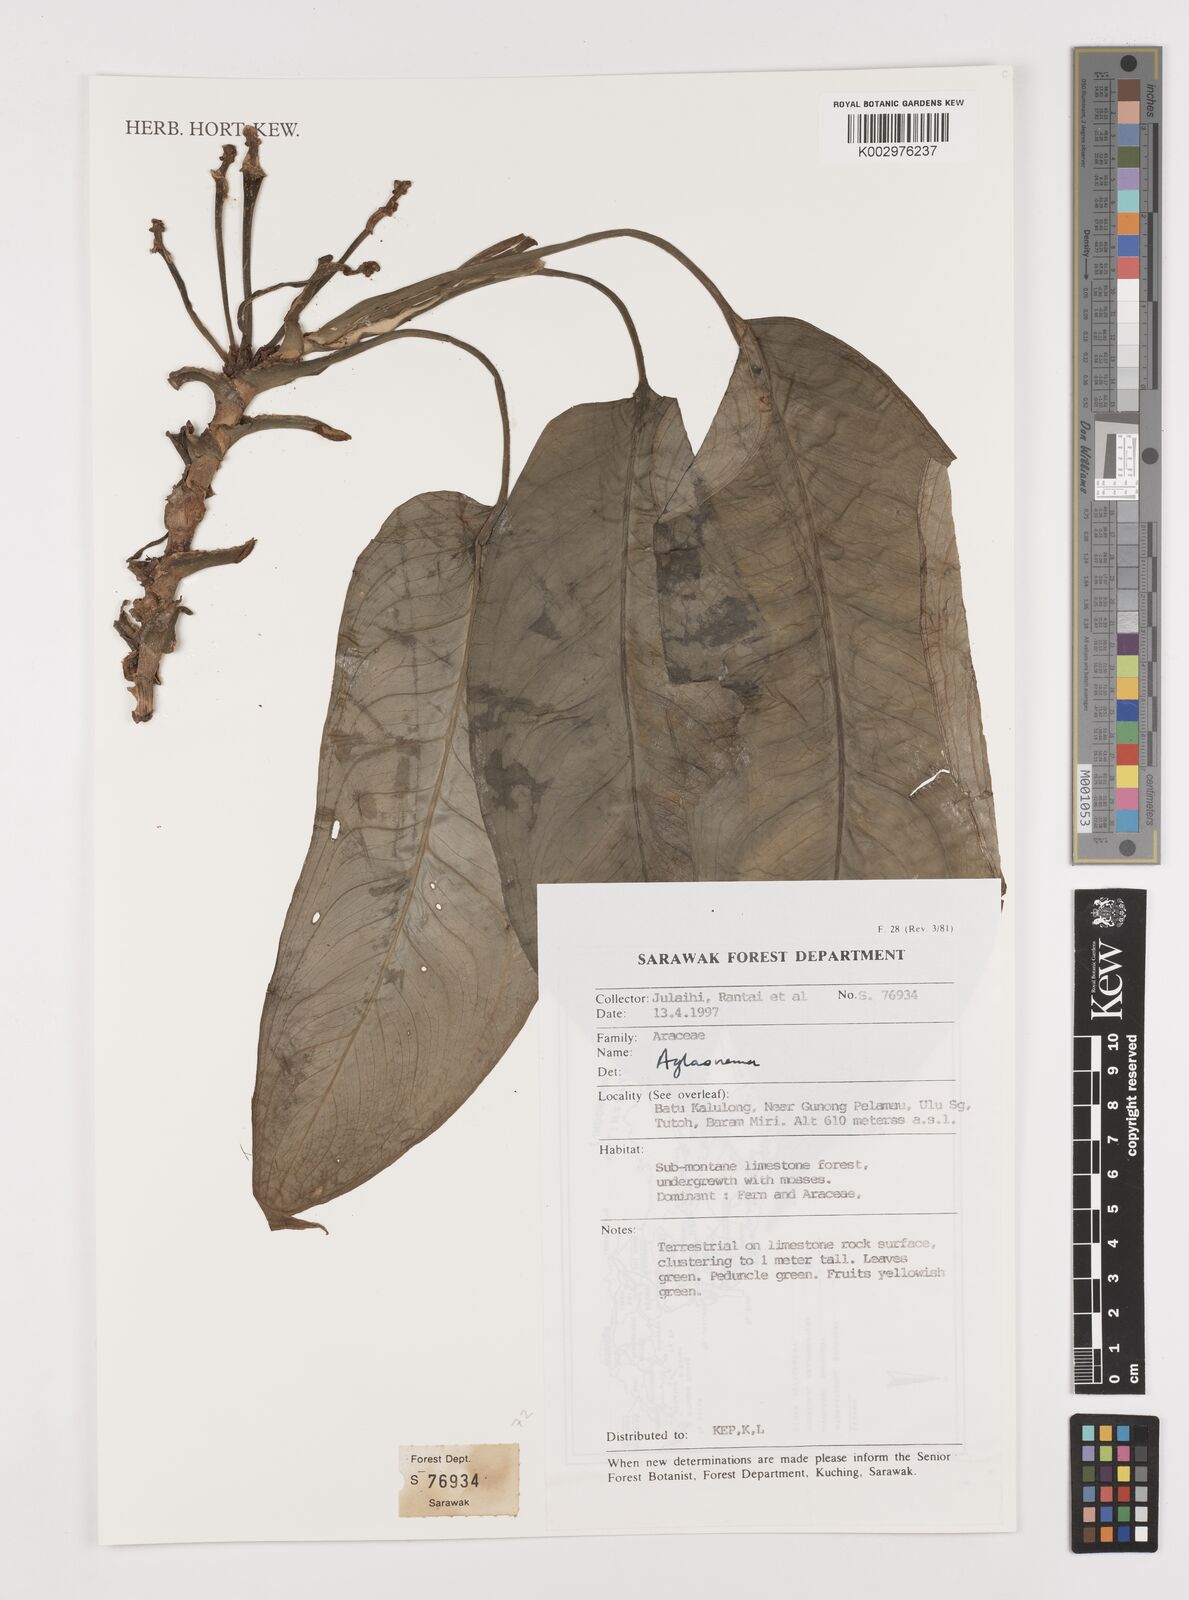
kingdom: Plantae
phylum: Tracheophyta
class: Liliopsida
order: Alismatales
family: Araceae
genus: Aglaonema
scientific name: Aglaonema
